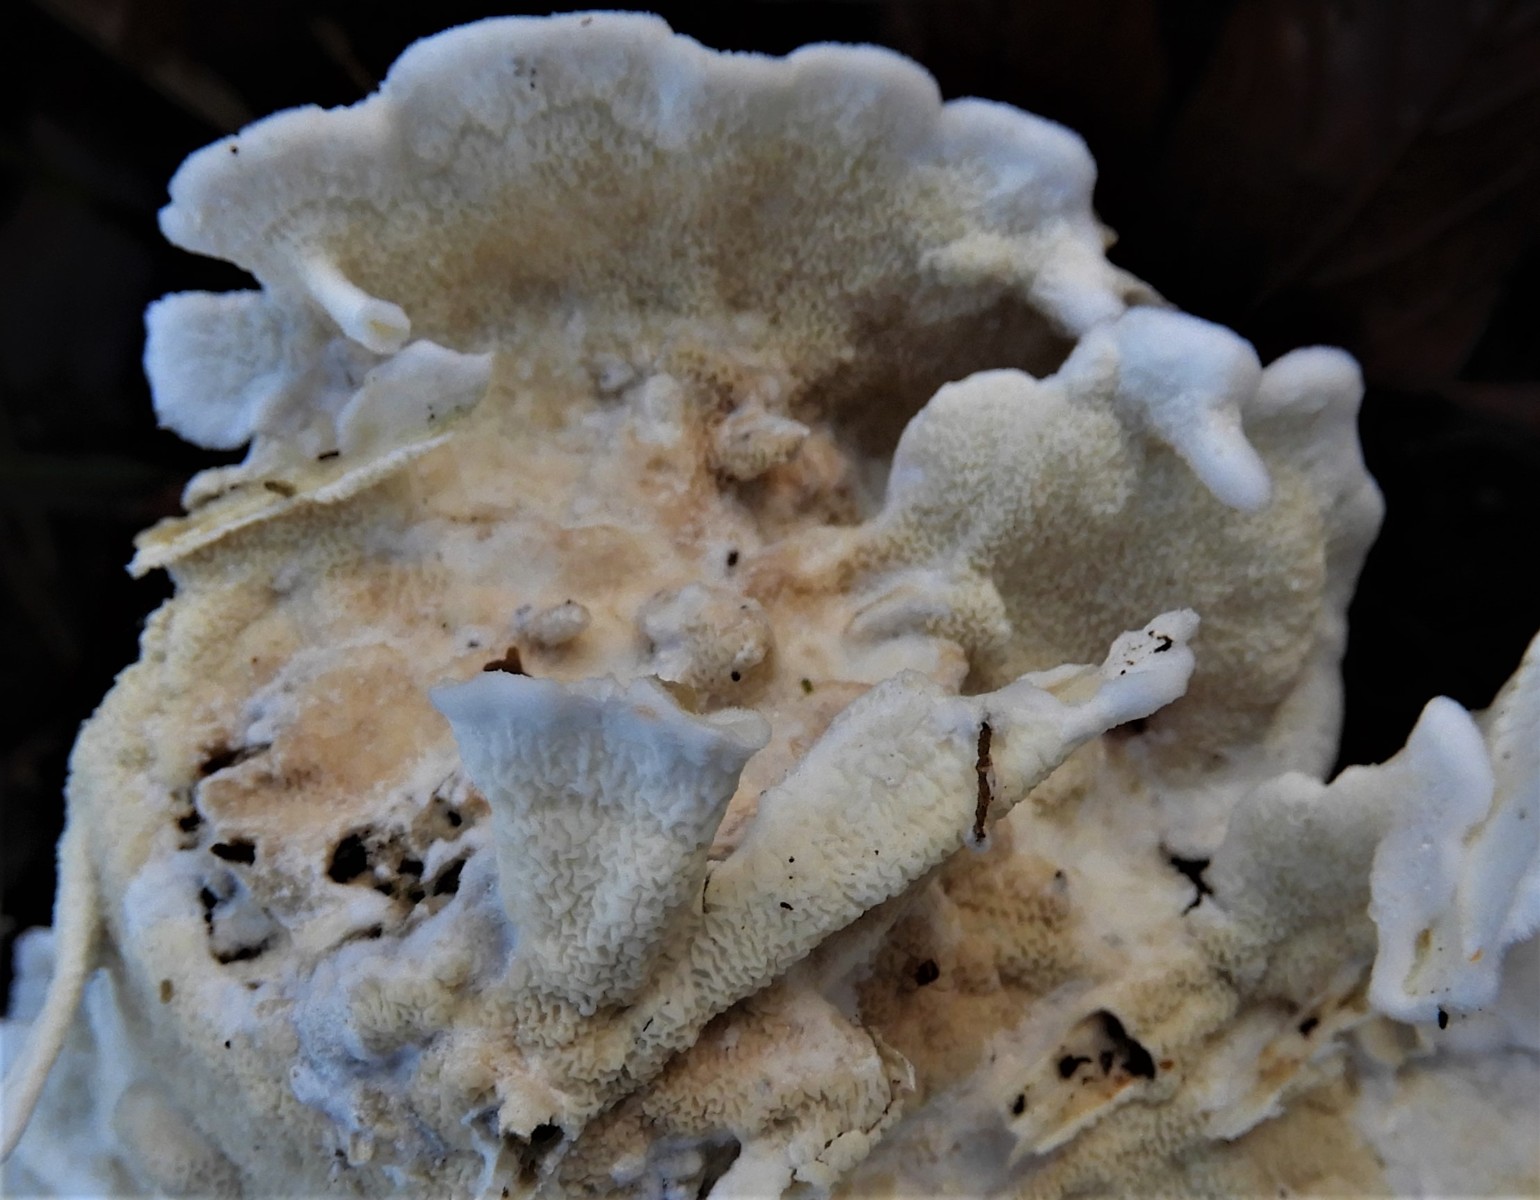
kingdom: Fungi
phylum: Basidiomycota
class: Agaricomycetes
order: Polyporales
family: Irpicaceae
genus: Byssomerulius
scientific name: Byssomerulius corium
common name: læder-åresvamp
